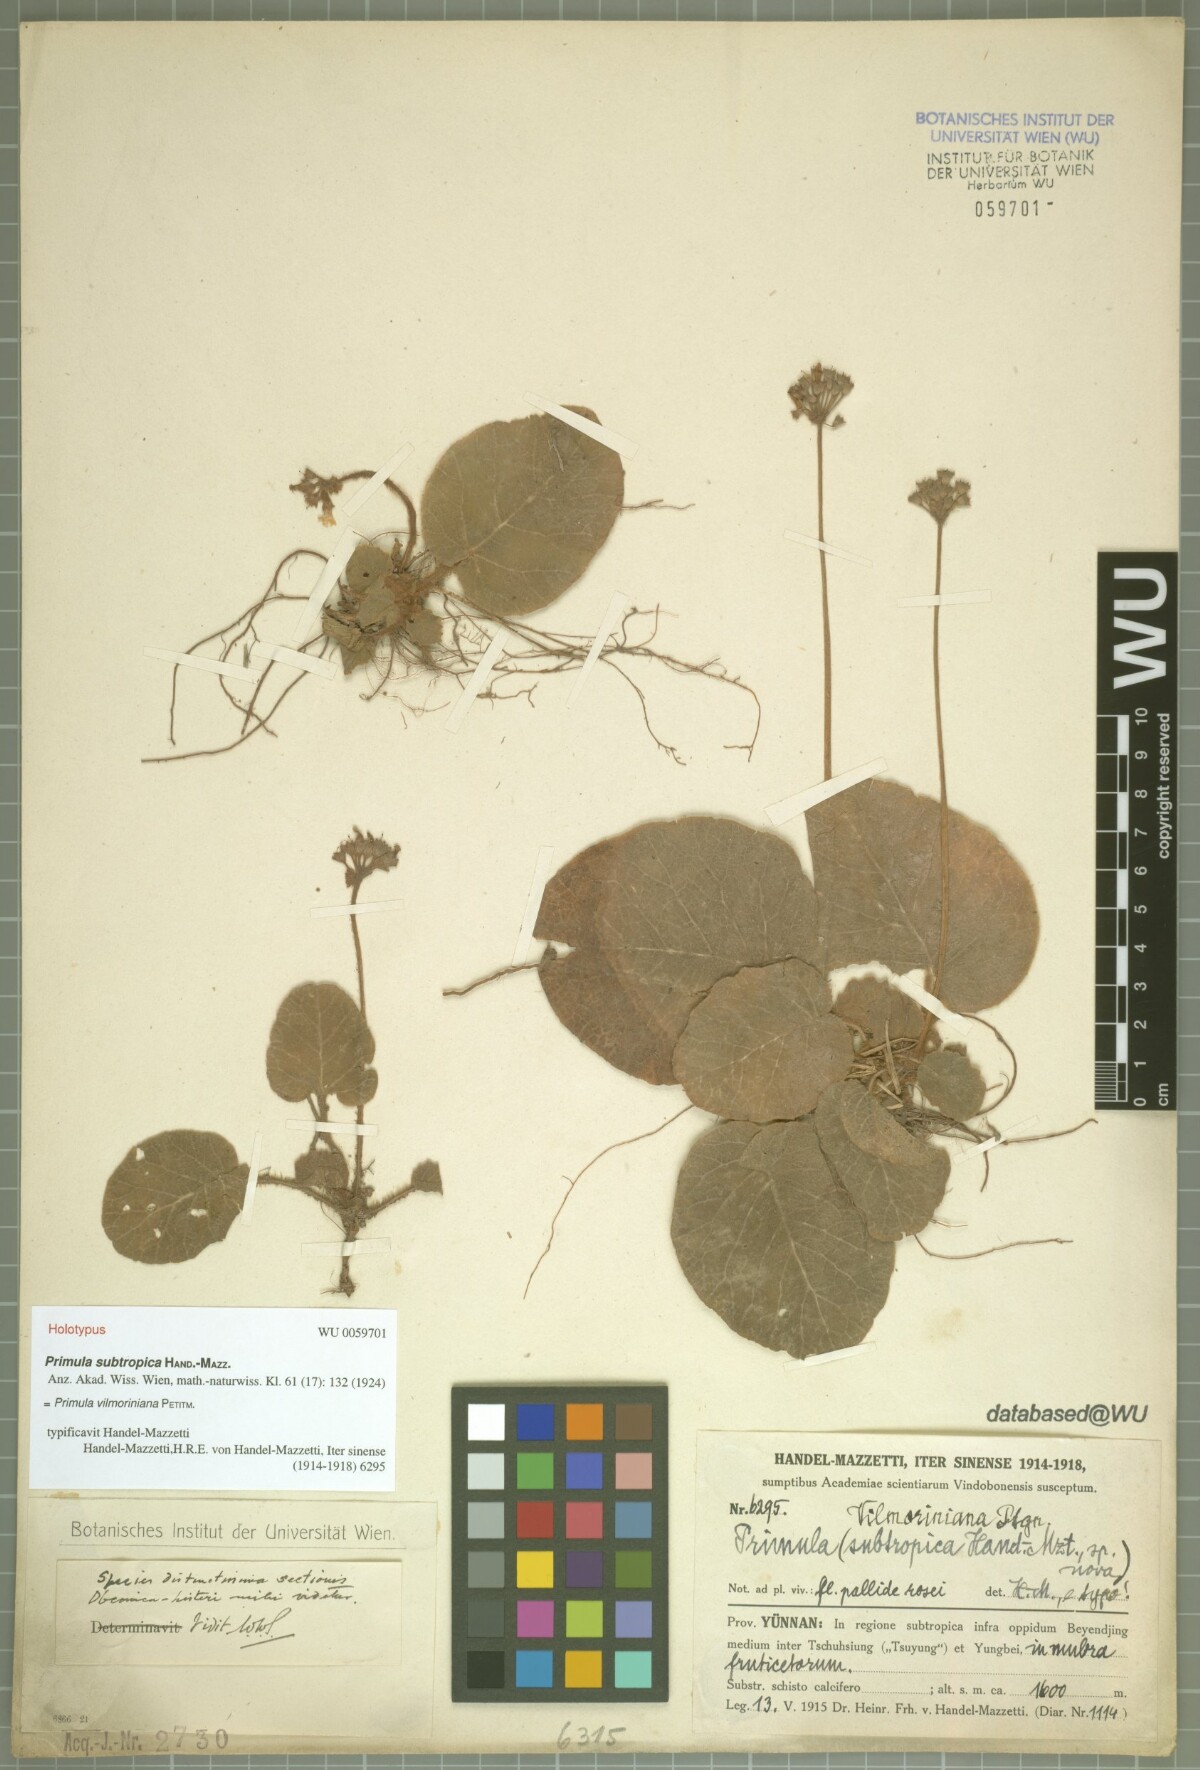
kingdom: Plantae
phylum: Tracheophyta
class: Magnoliopsida
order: Ericales
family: Primulaceae
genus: Primula
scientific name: Primula vilmoriniana
